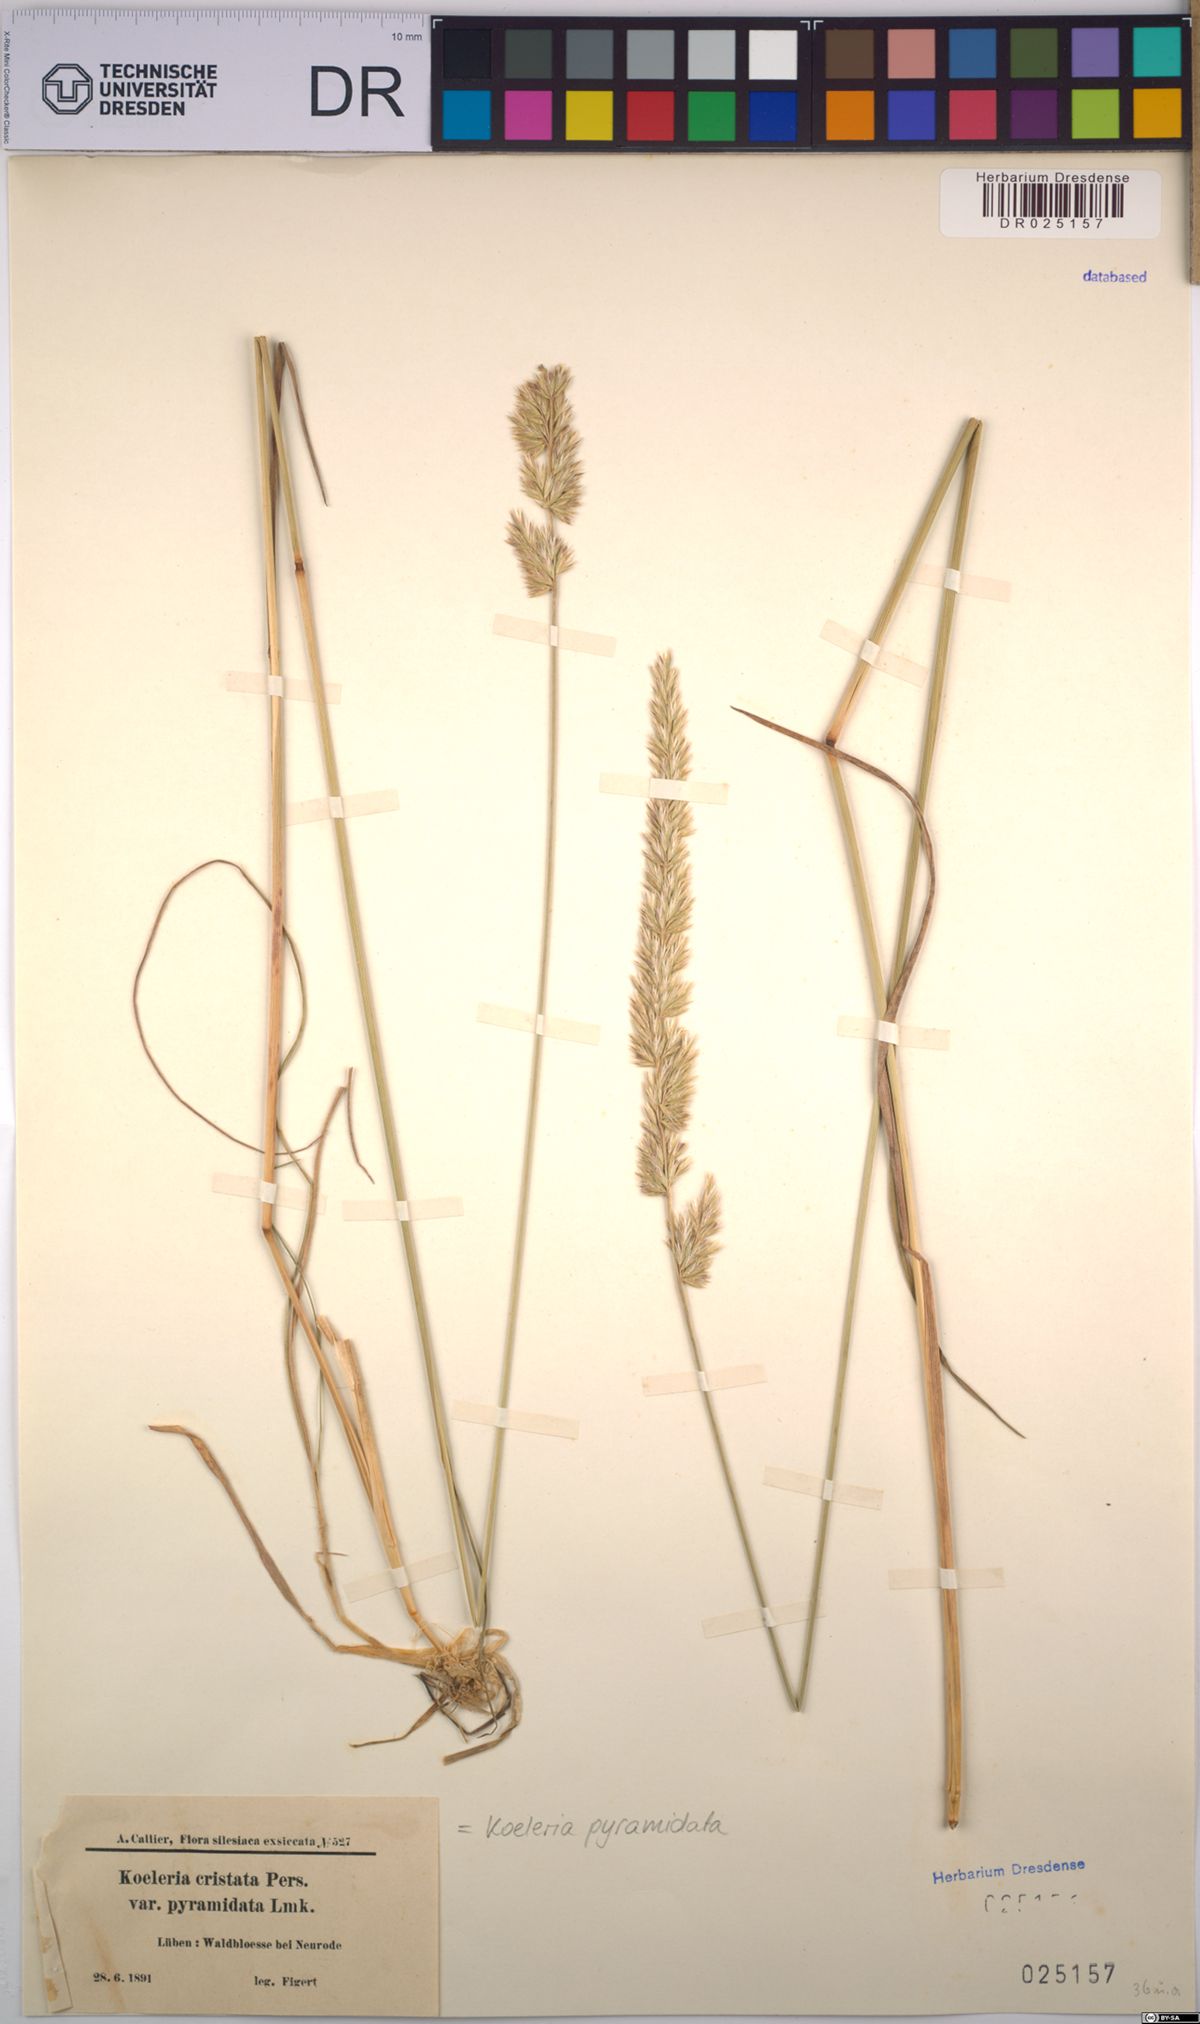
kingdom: Plantae
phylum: Tracheophyta
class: Liliopsida
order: Poales
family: Poaceae
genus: Koeleria
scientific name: Koeleria pyramidata
